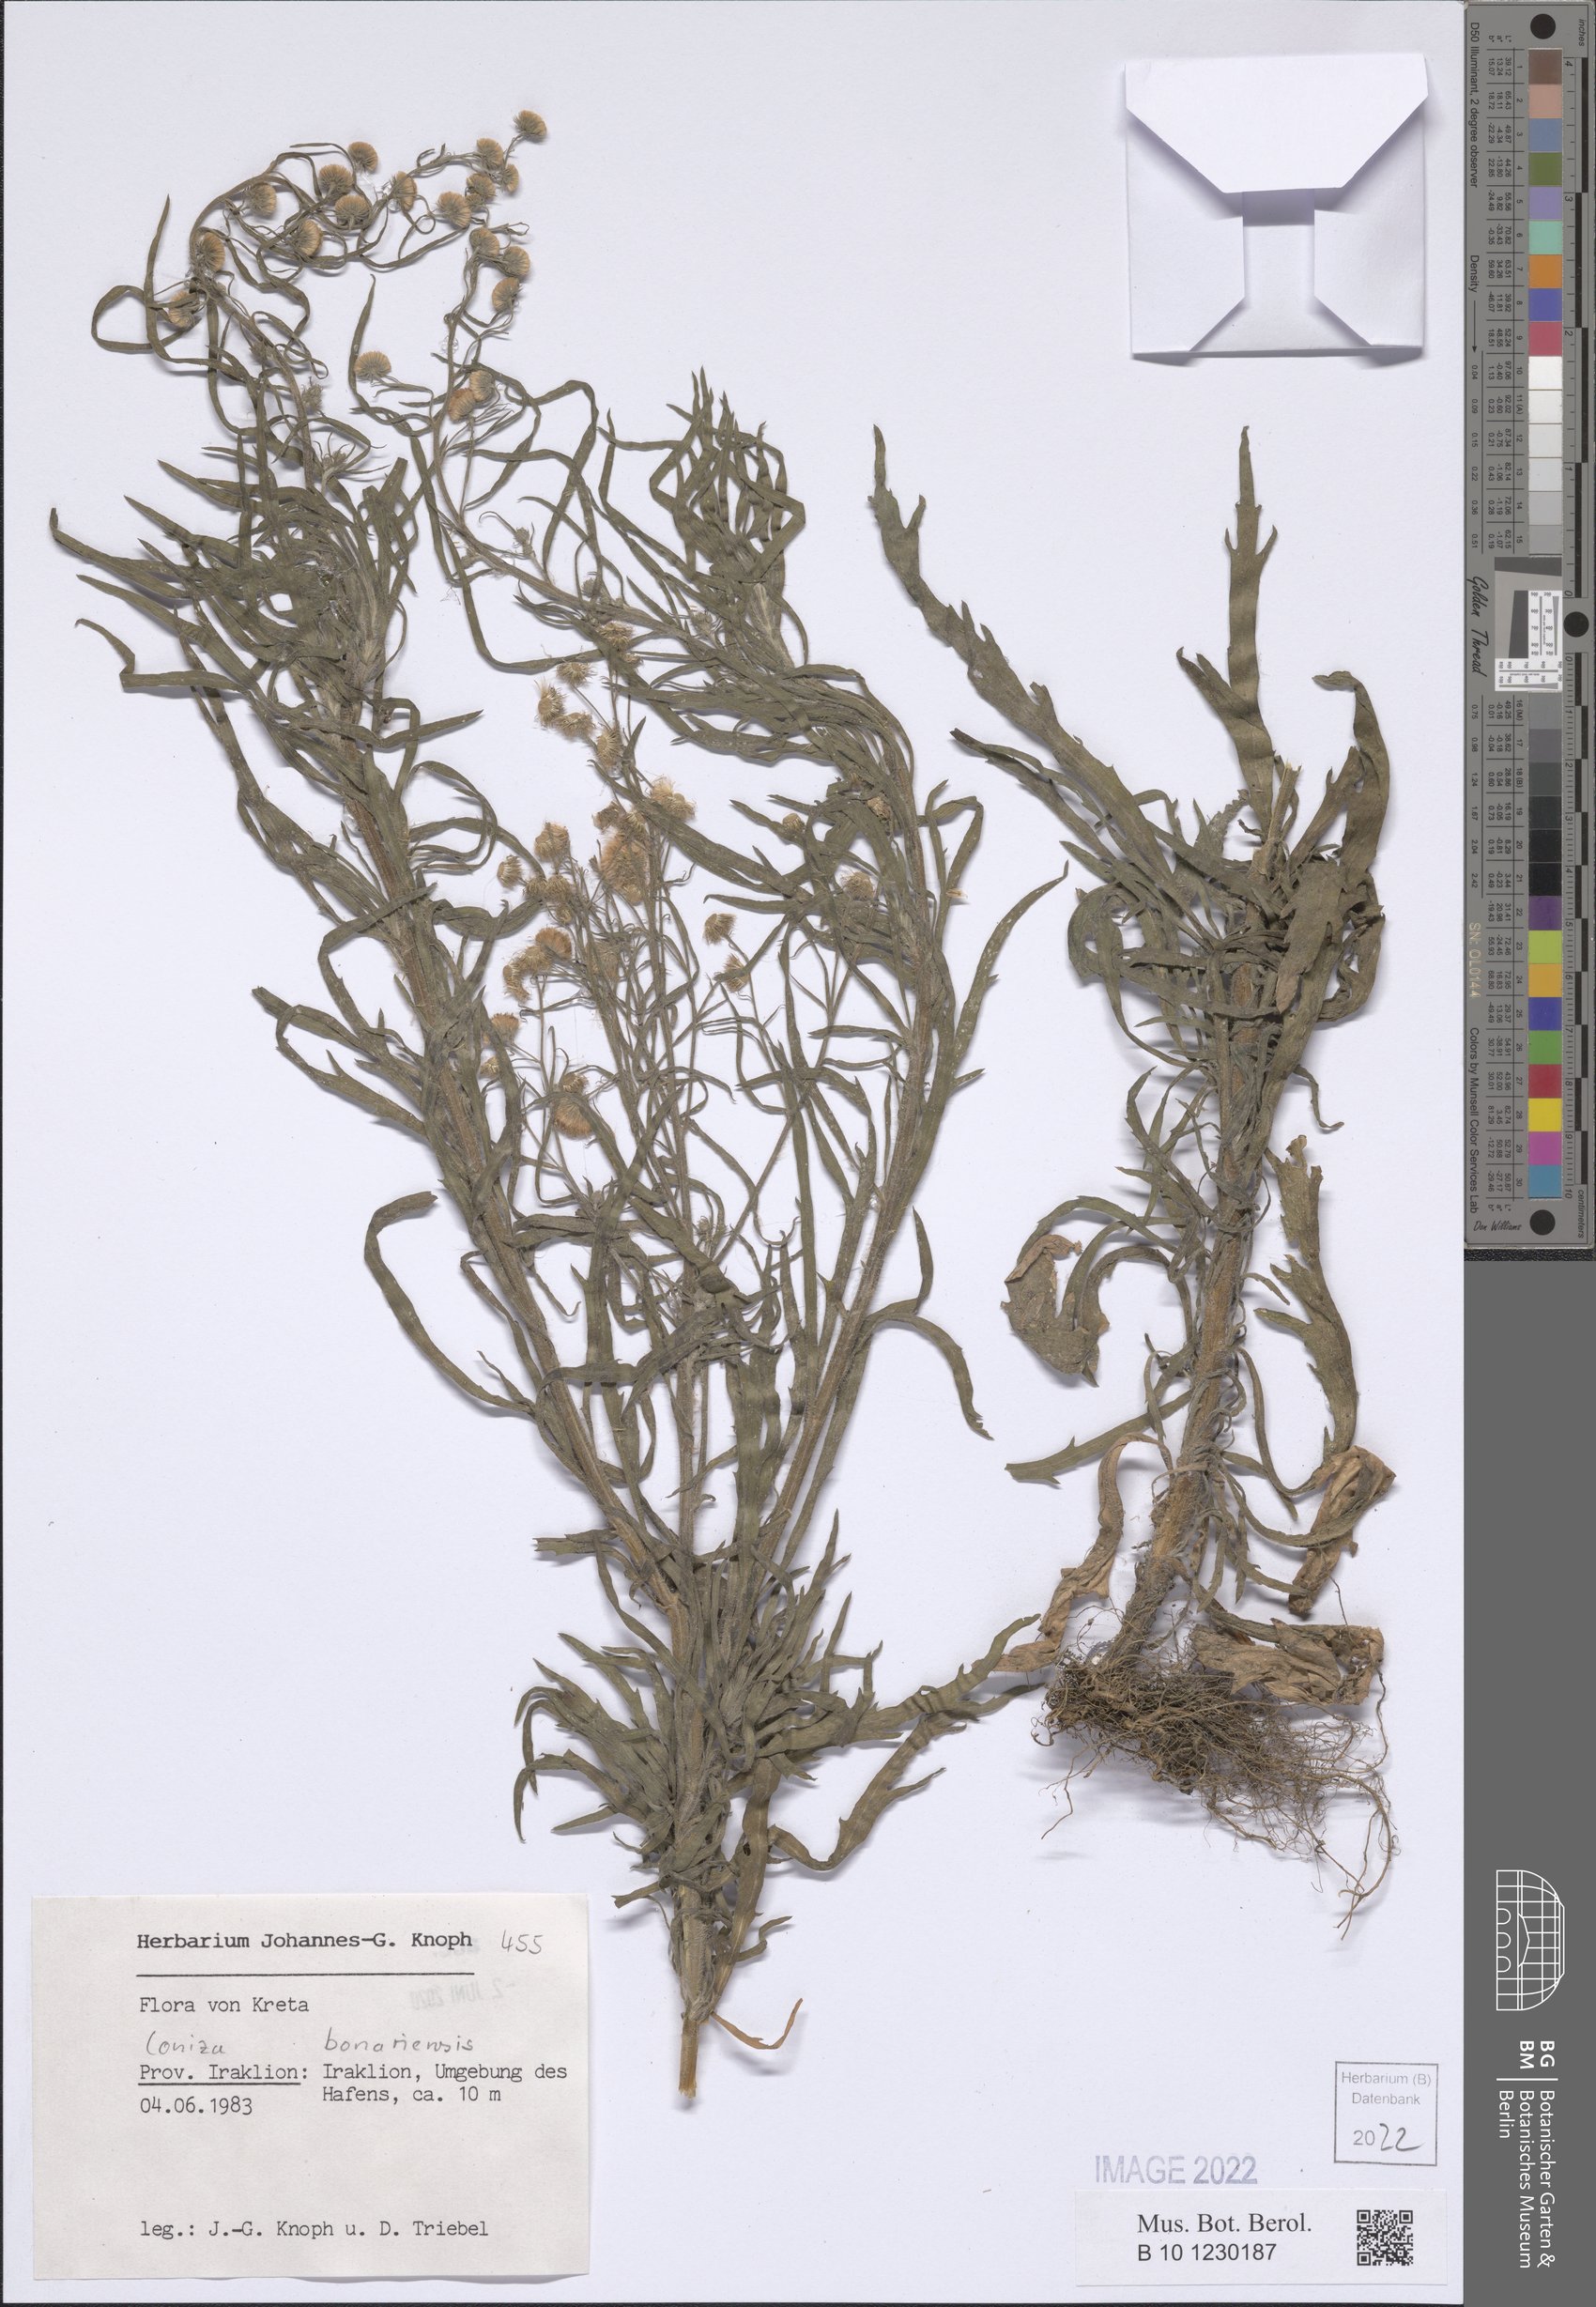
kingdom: Plantae
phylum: Tracheophyta
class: Magnoliopsida
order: Asterales
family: Asteraceae
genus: Erigeron
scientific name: Erigeron bonariensis
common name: Argentine fleabane
